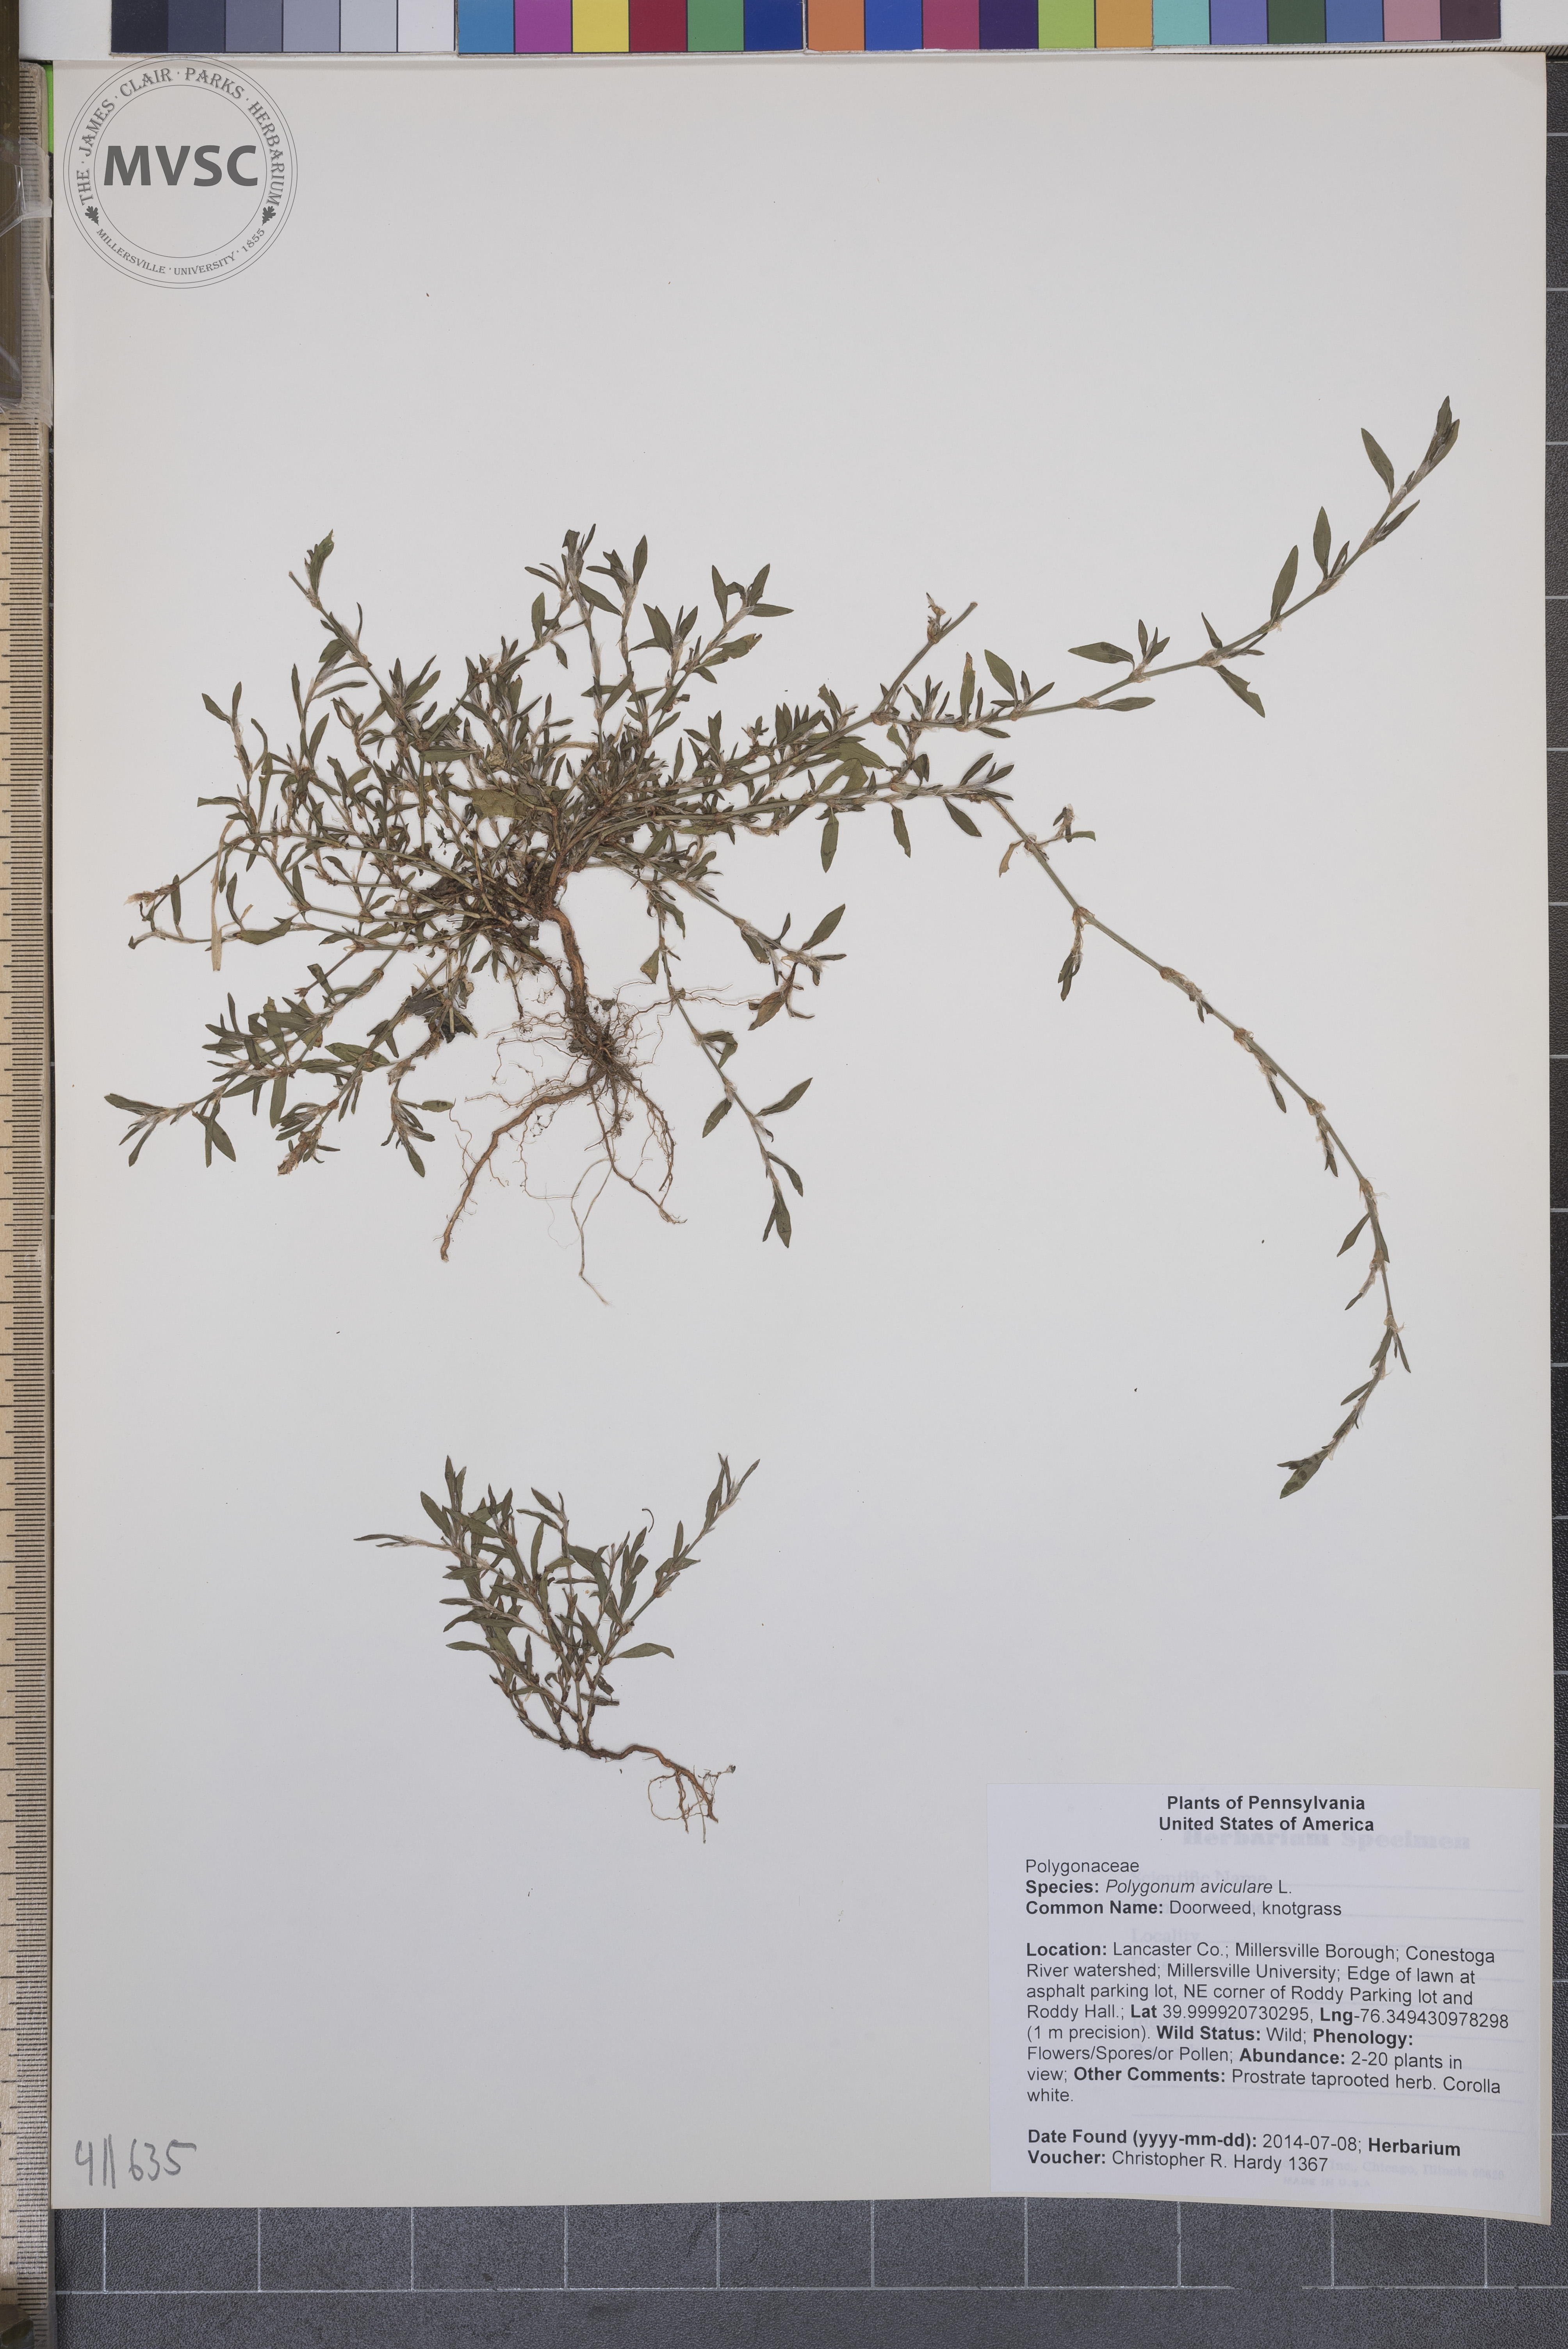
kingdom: Plantae
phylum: Tracheophyta
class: Magnoliopsida
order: Caryophyllales
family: Polygonaceae
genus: Polygonum
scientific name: Polygonum aviculare
